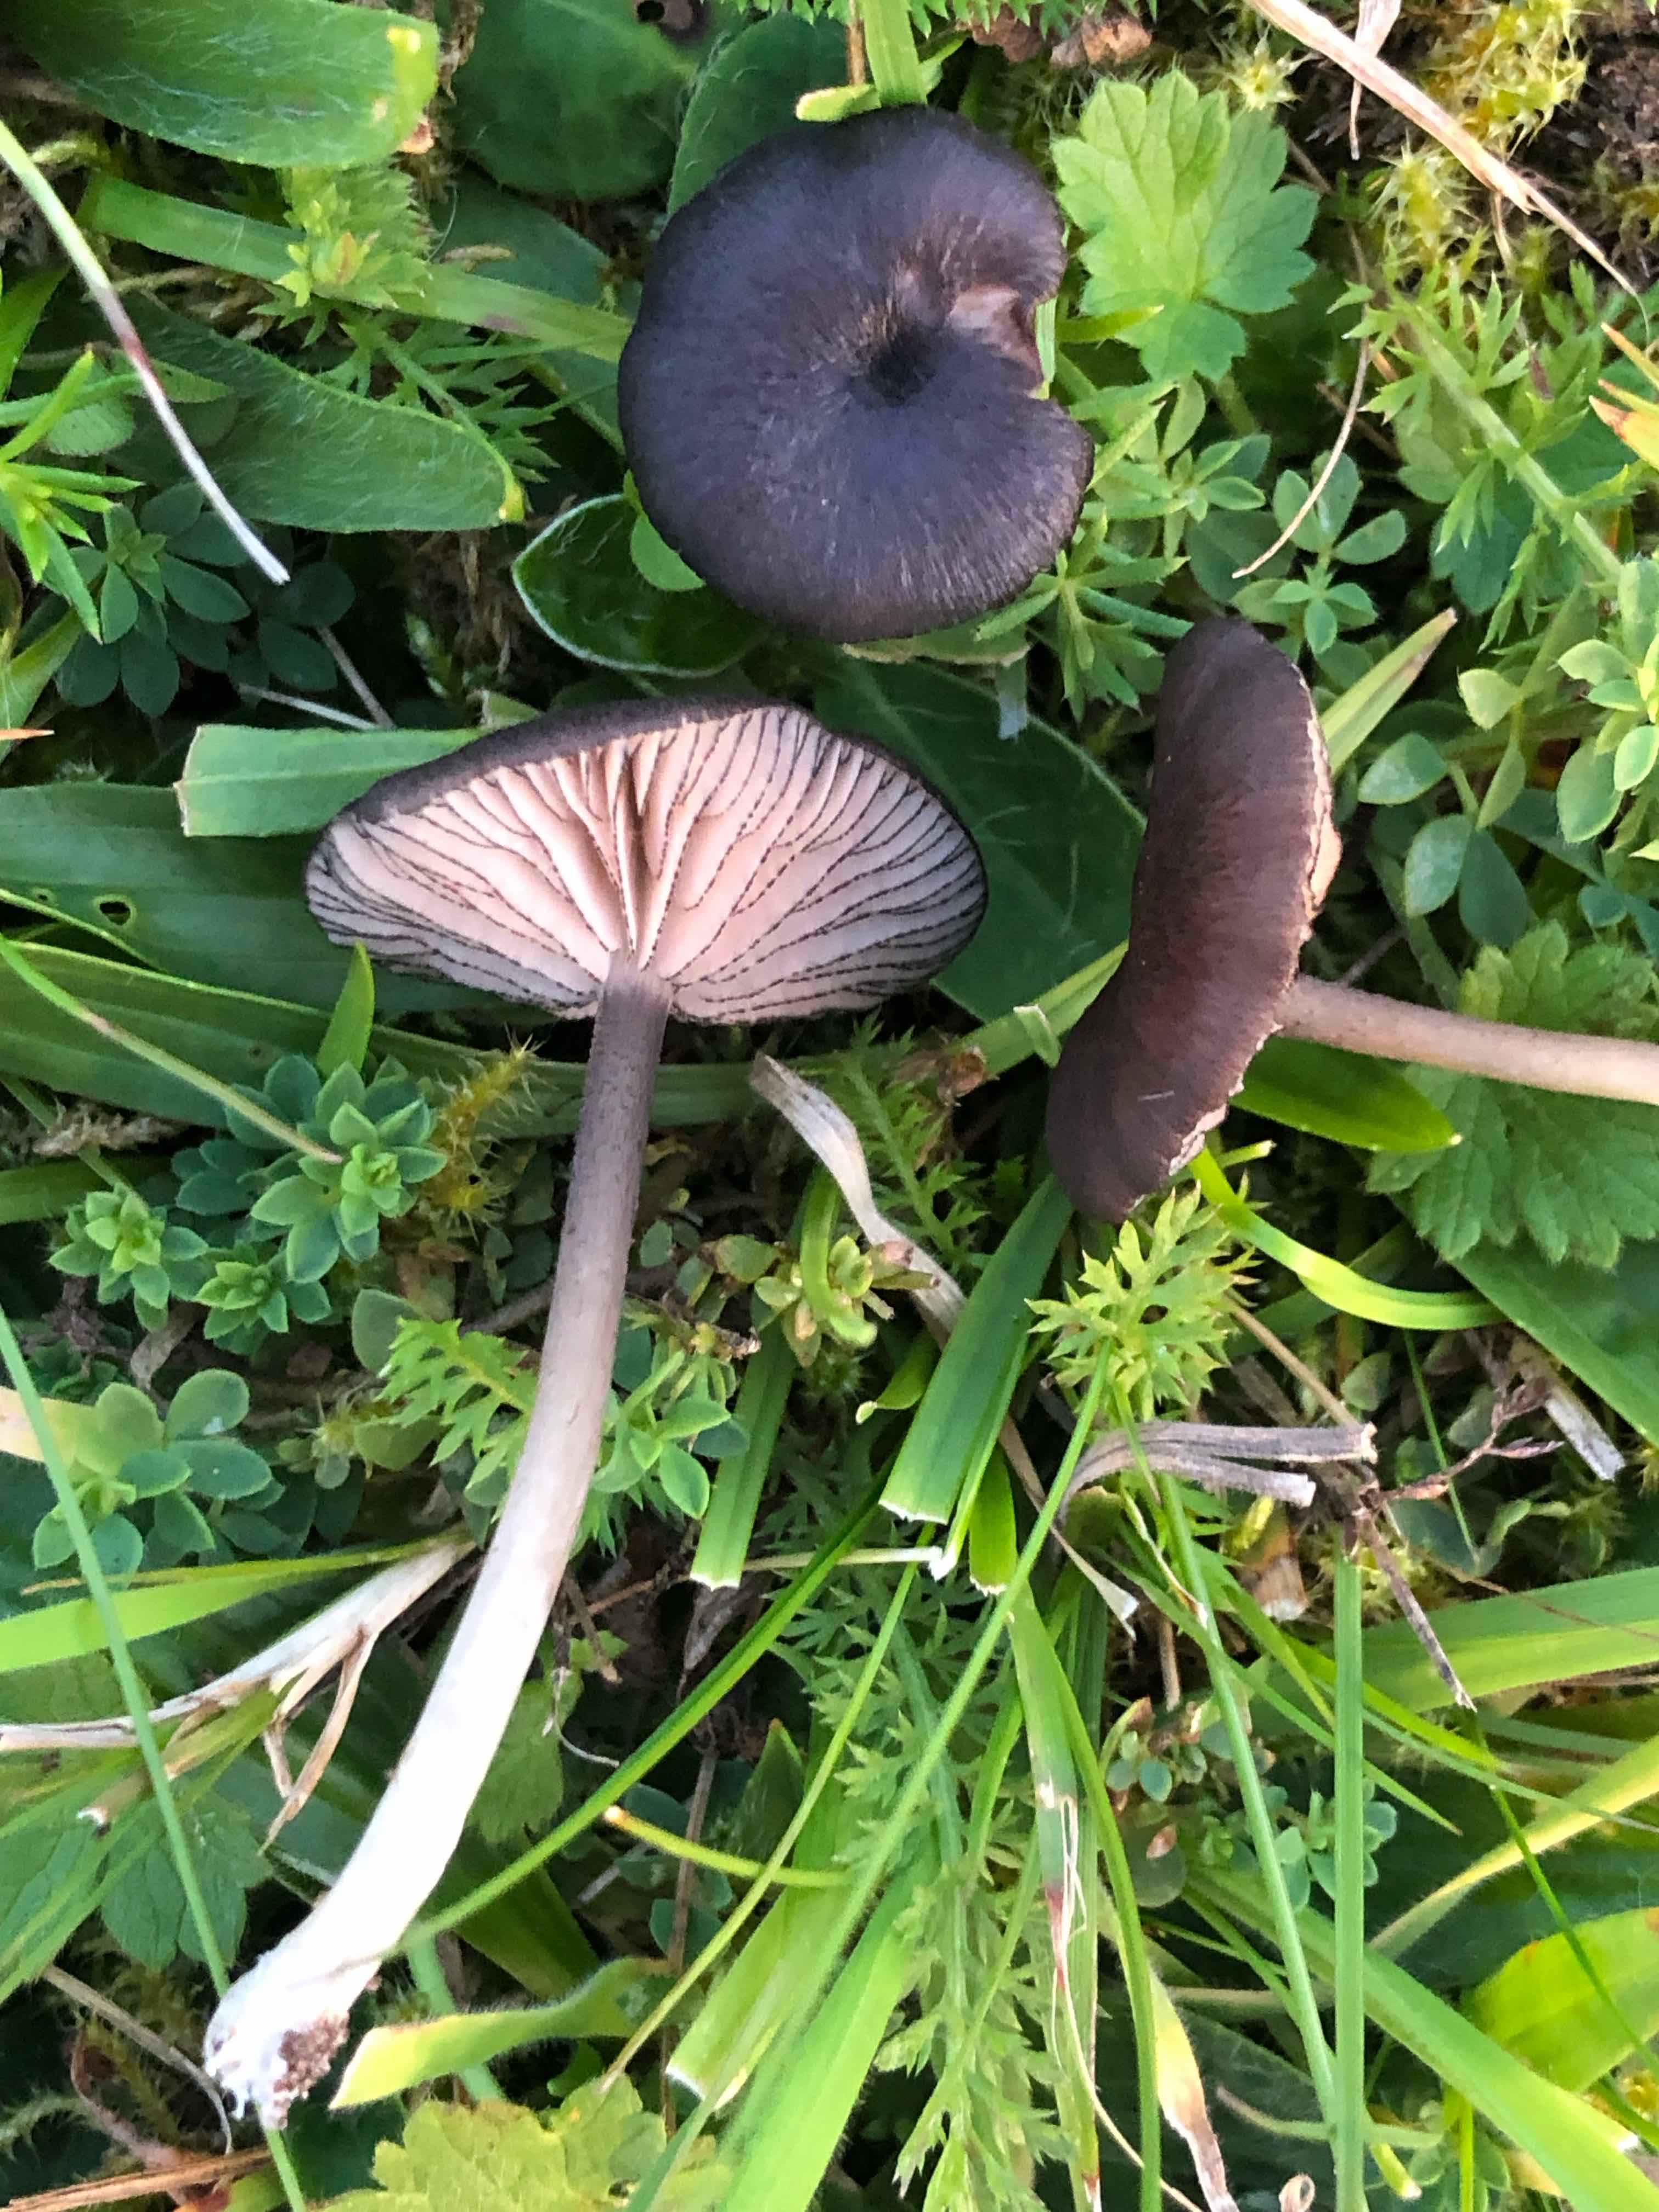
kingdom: Fungi
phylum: Basidiomycota
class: Agaricomycetes
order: Agaricales
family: Entolomataceae
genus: Entoloma
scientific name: Entoloma
